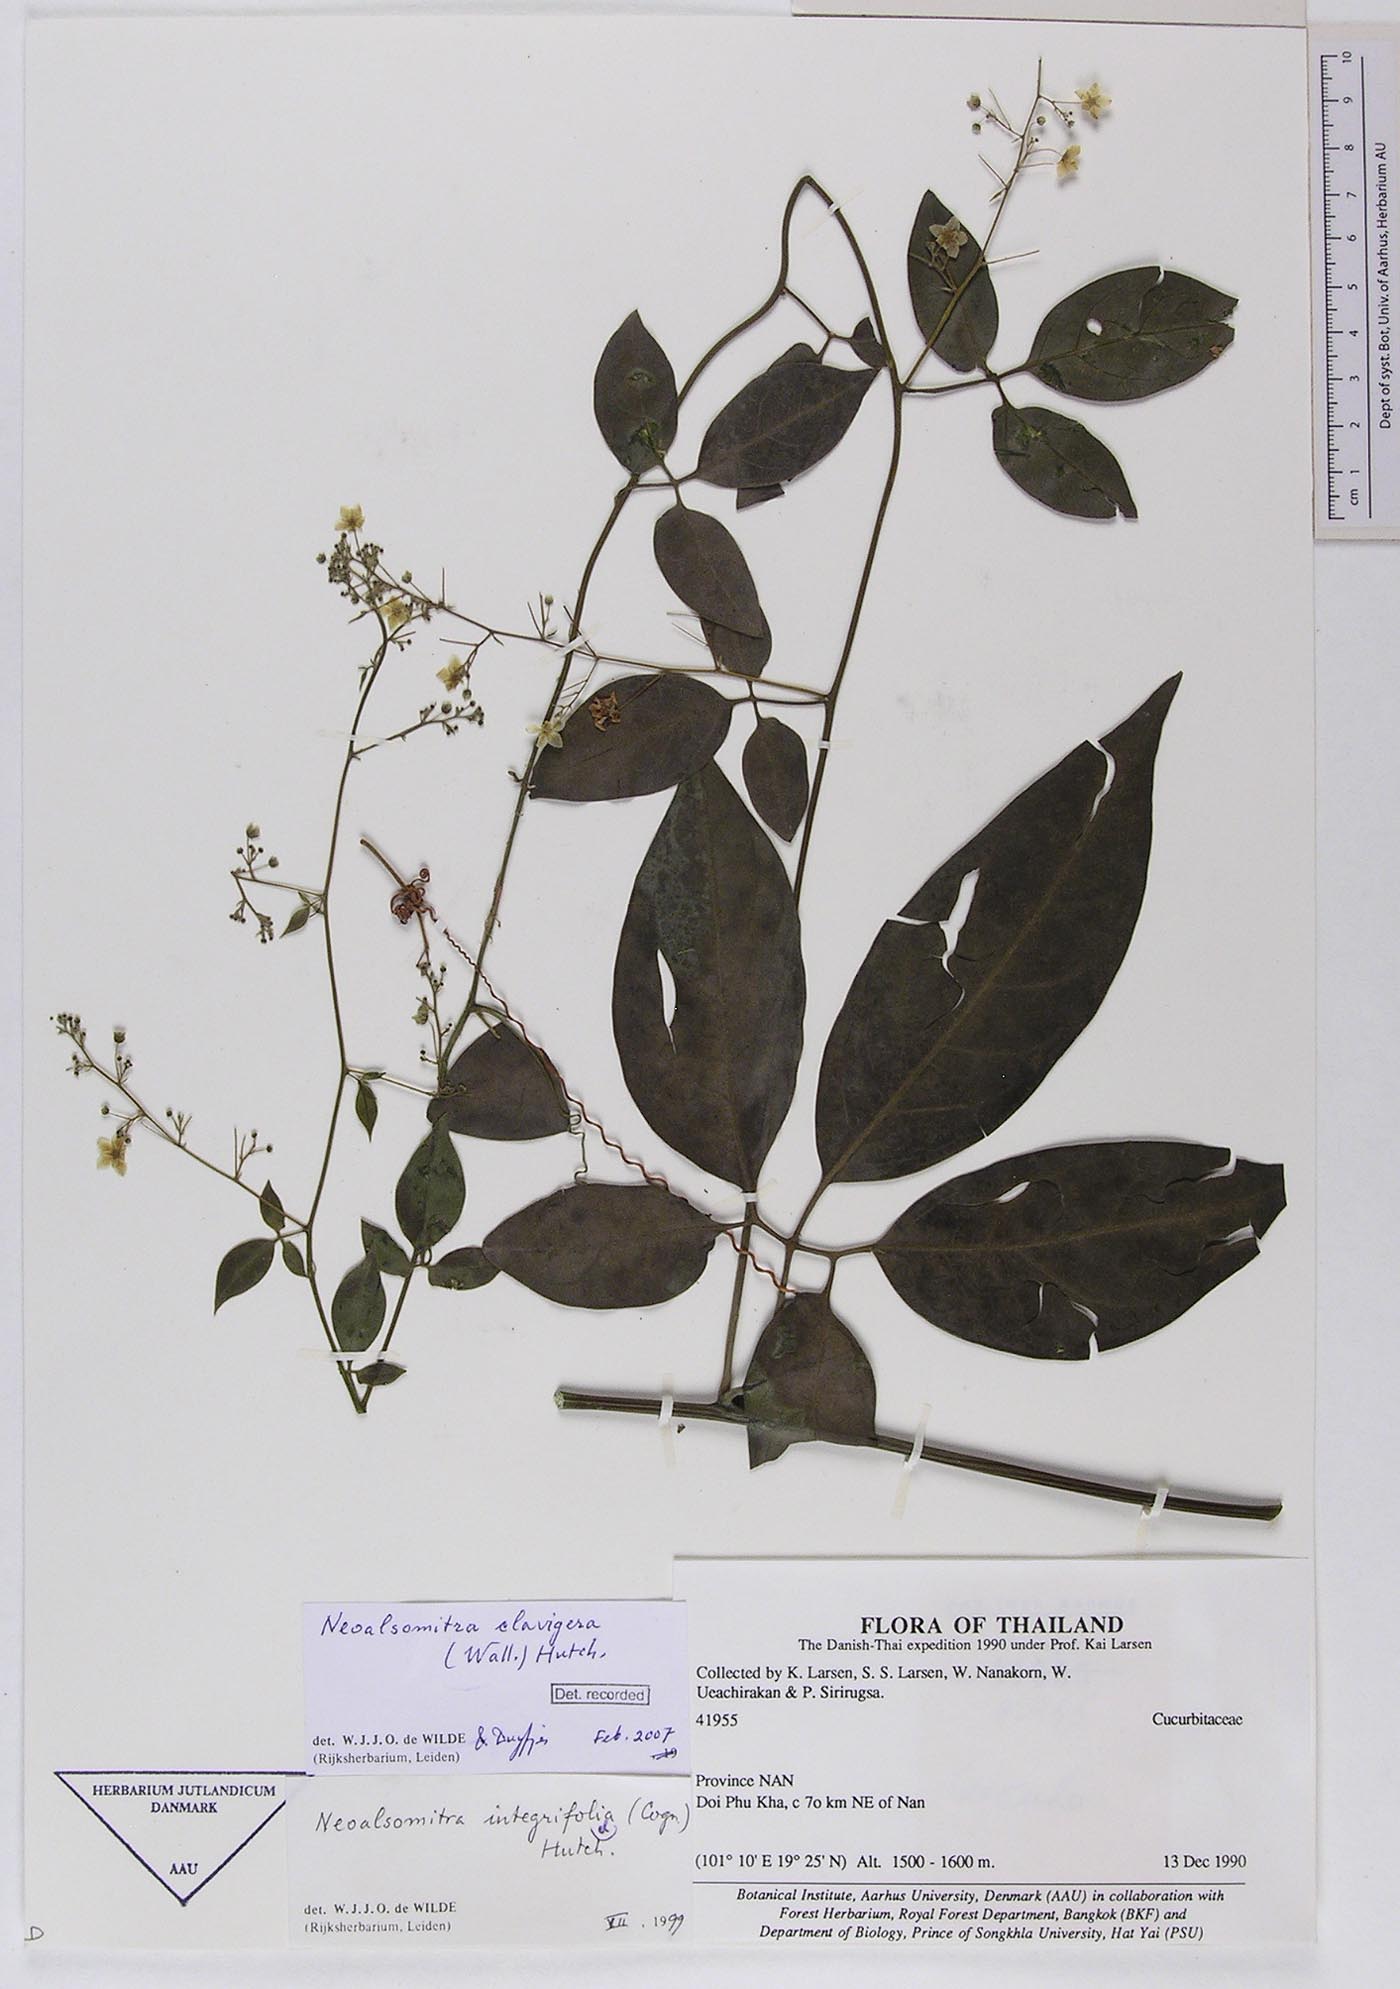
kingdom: Plantae
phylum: Tracheophyta
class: Magnoliopsida
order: Cucurbitales
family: Cucurbitaceae
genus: Neoalsomitra
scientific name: Neoalsomitra clavigera
